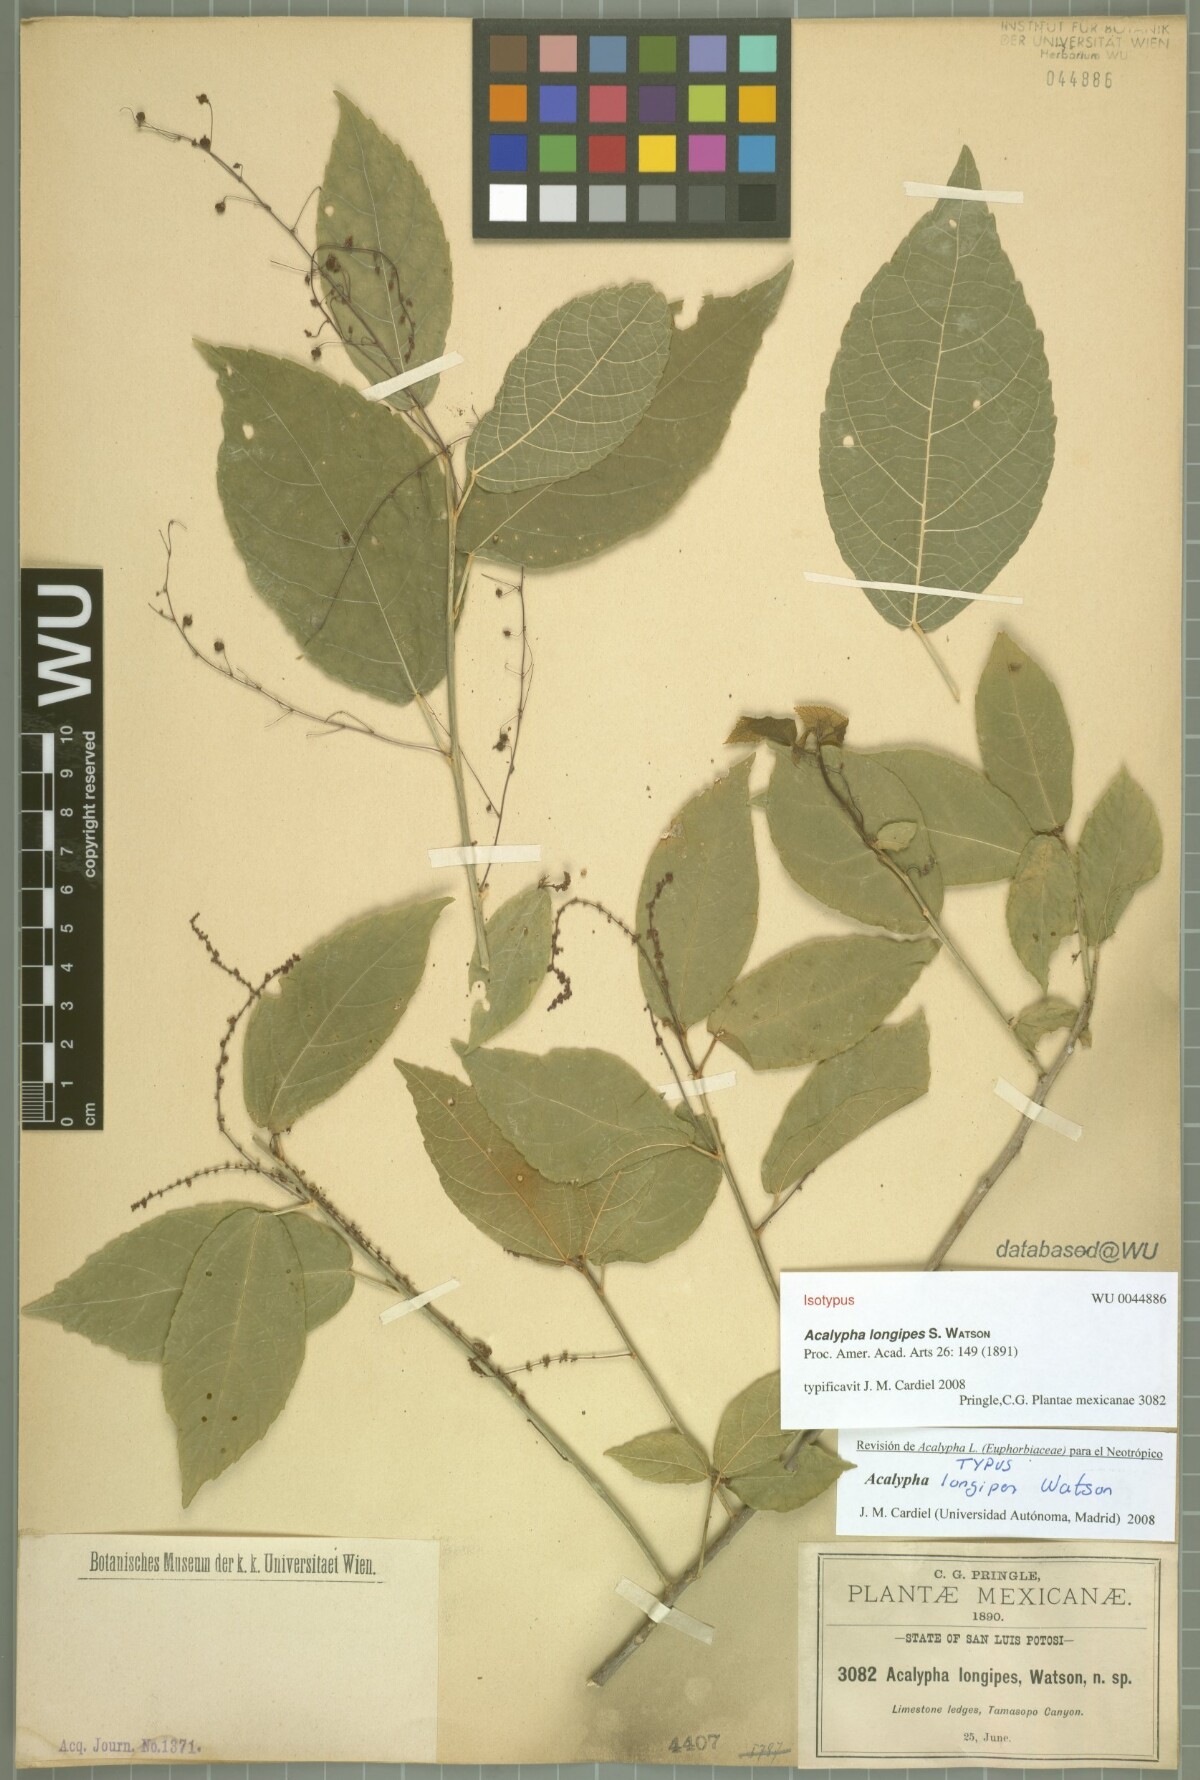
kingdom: Plantae
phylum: Tracheophyta
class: Magnoliopsida
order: Malpighiales
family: Euphorbiaceae
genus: Acalypha
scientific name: Acalypha longipes
